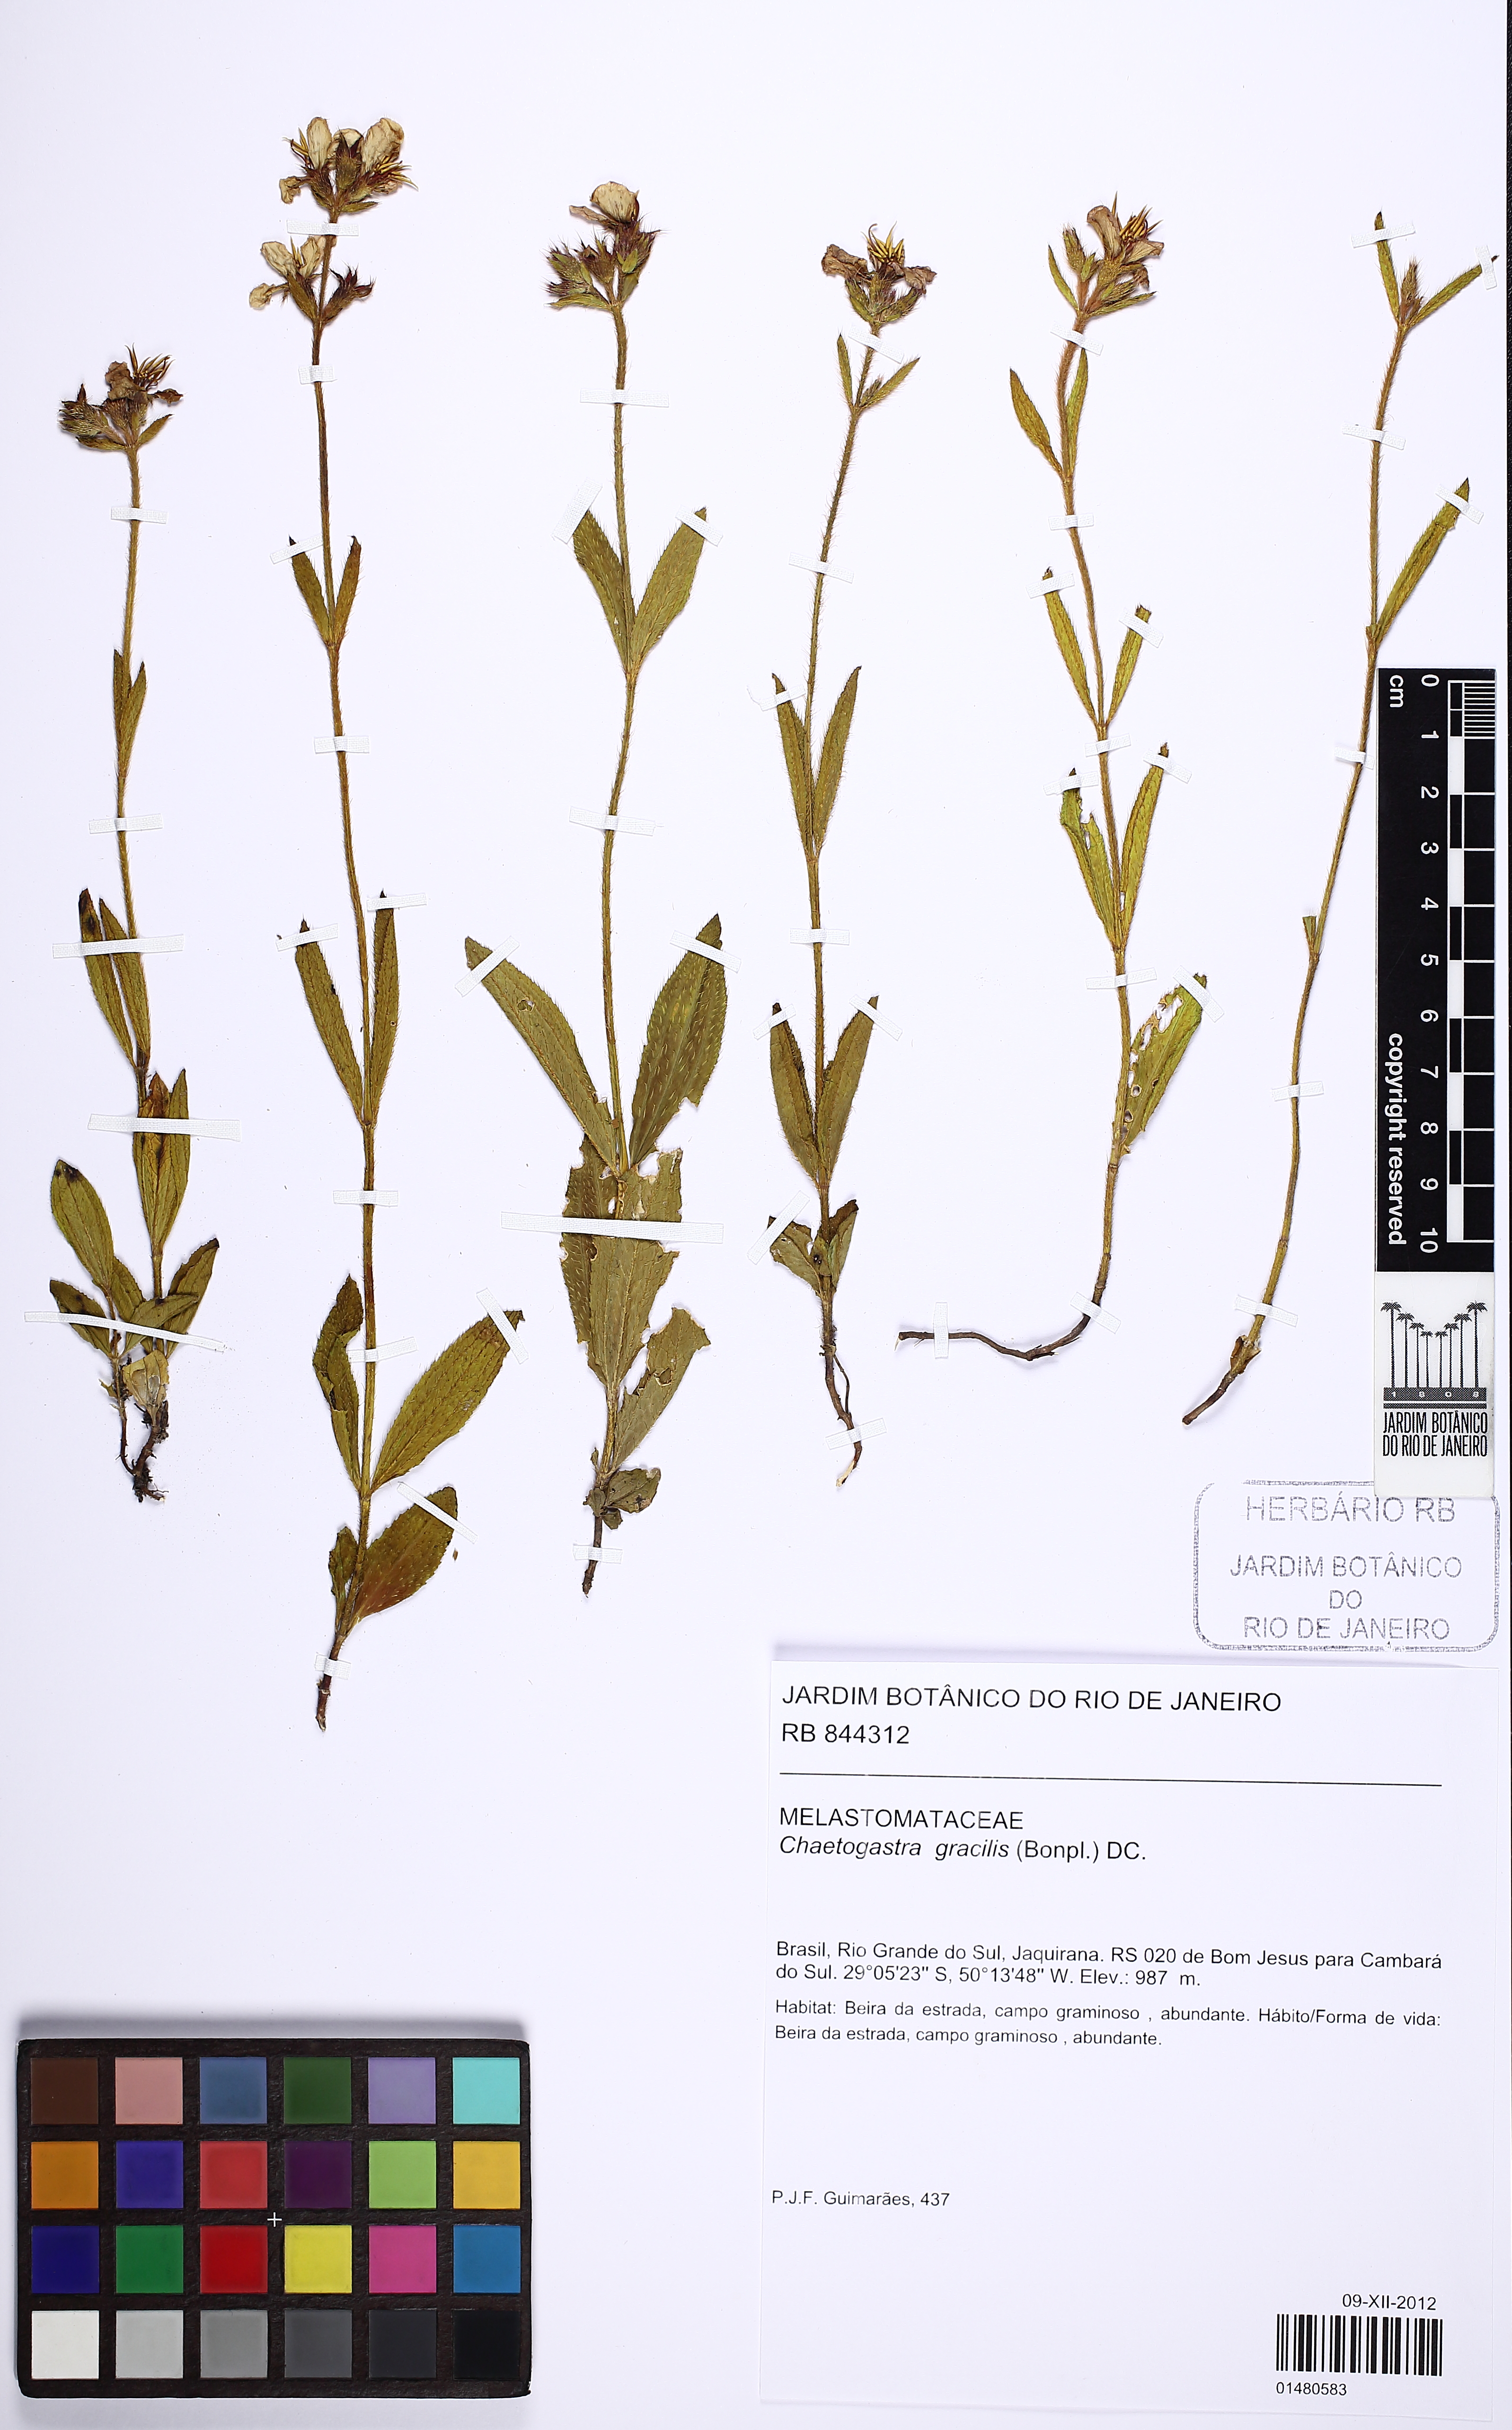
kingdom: Plantae
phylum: Tracheophyta
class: Magnoliopsida
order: Myrtales
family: Melastomataceae
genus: Chaetogastra
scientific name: Chaetogastra gracilis
